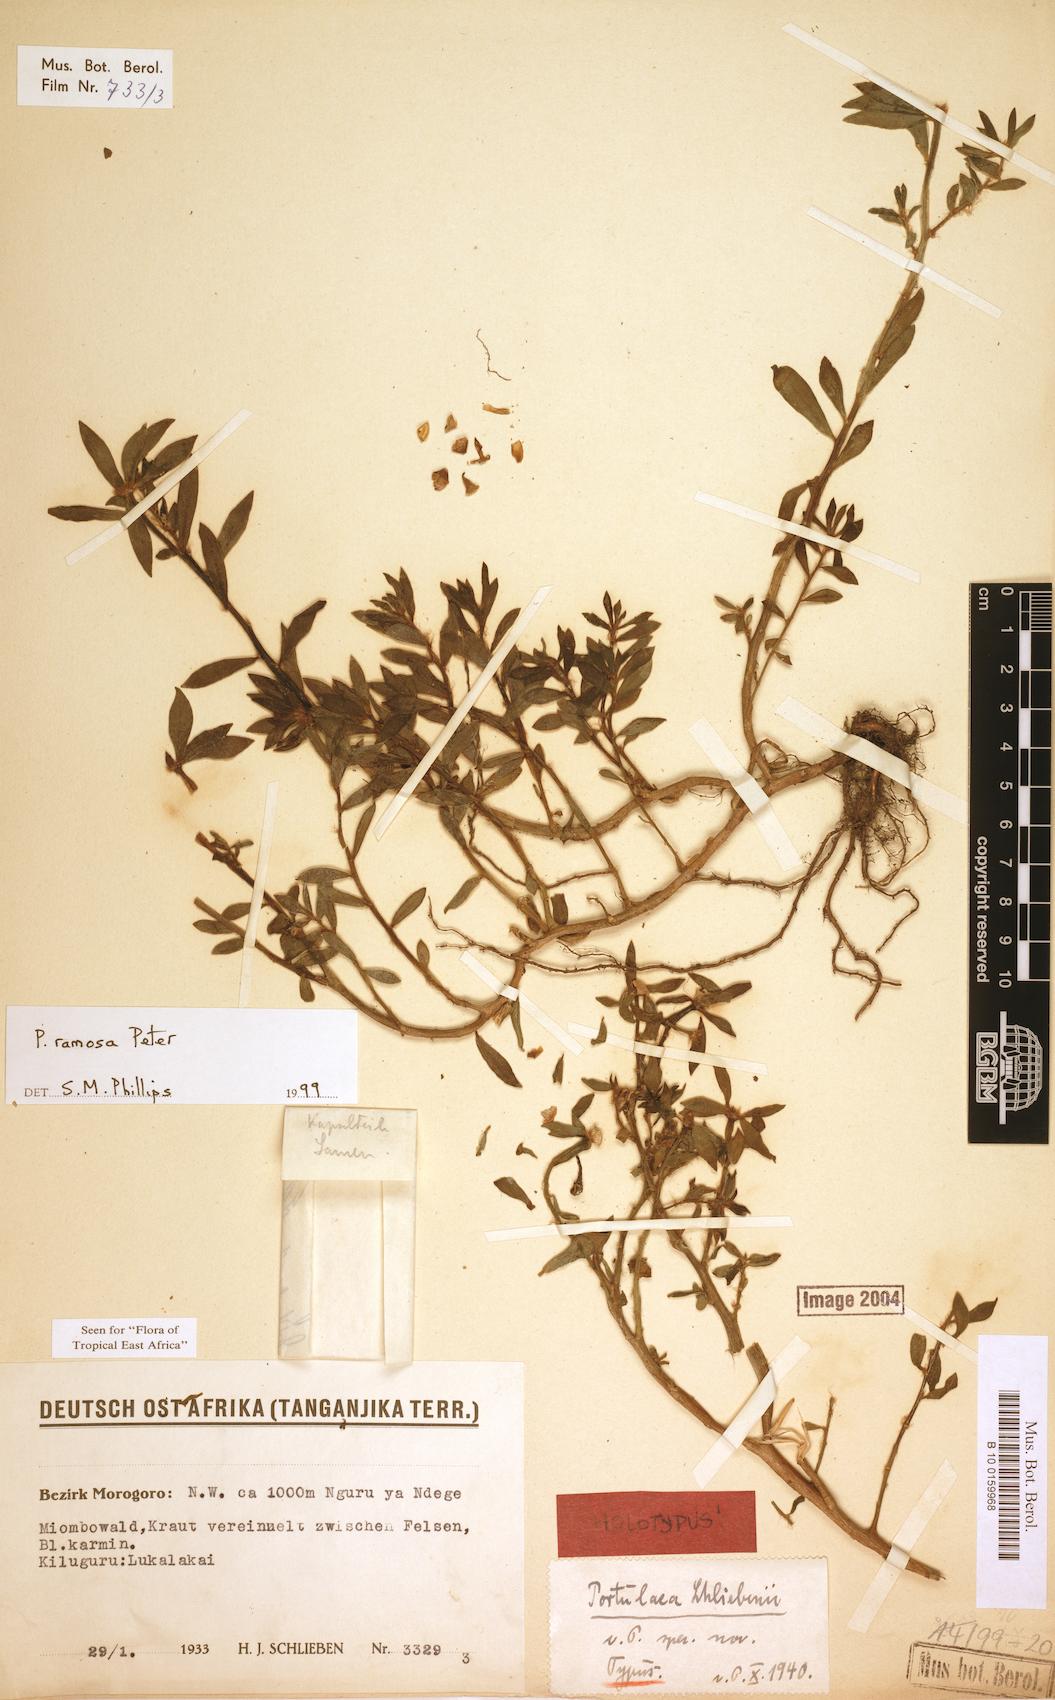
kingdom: Plantae
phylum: Tracheophyta
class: Magnoliopsida
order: Caryophyllales
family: Portulacaceae
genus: Portulaca
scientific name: Portulaca ramosa
